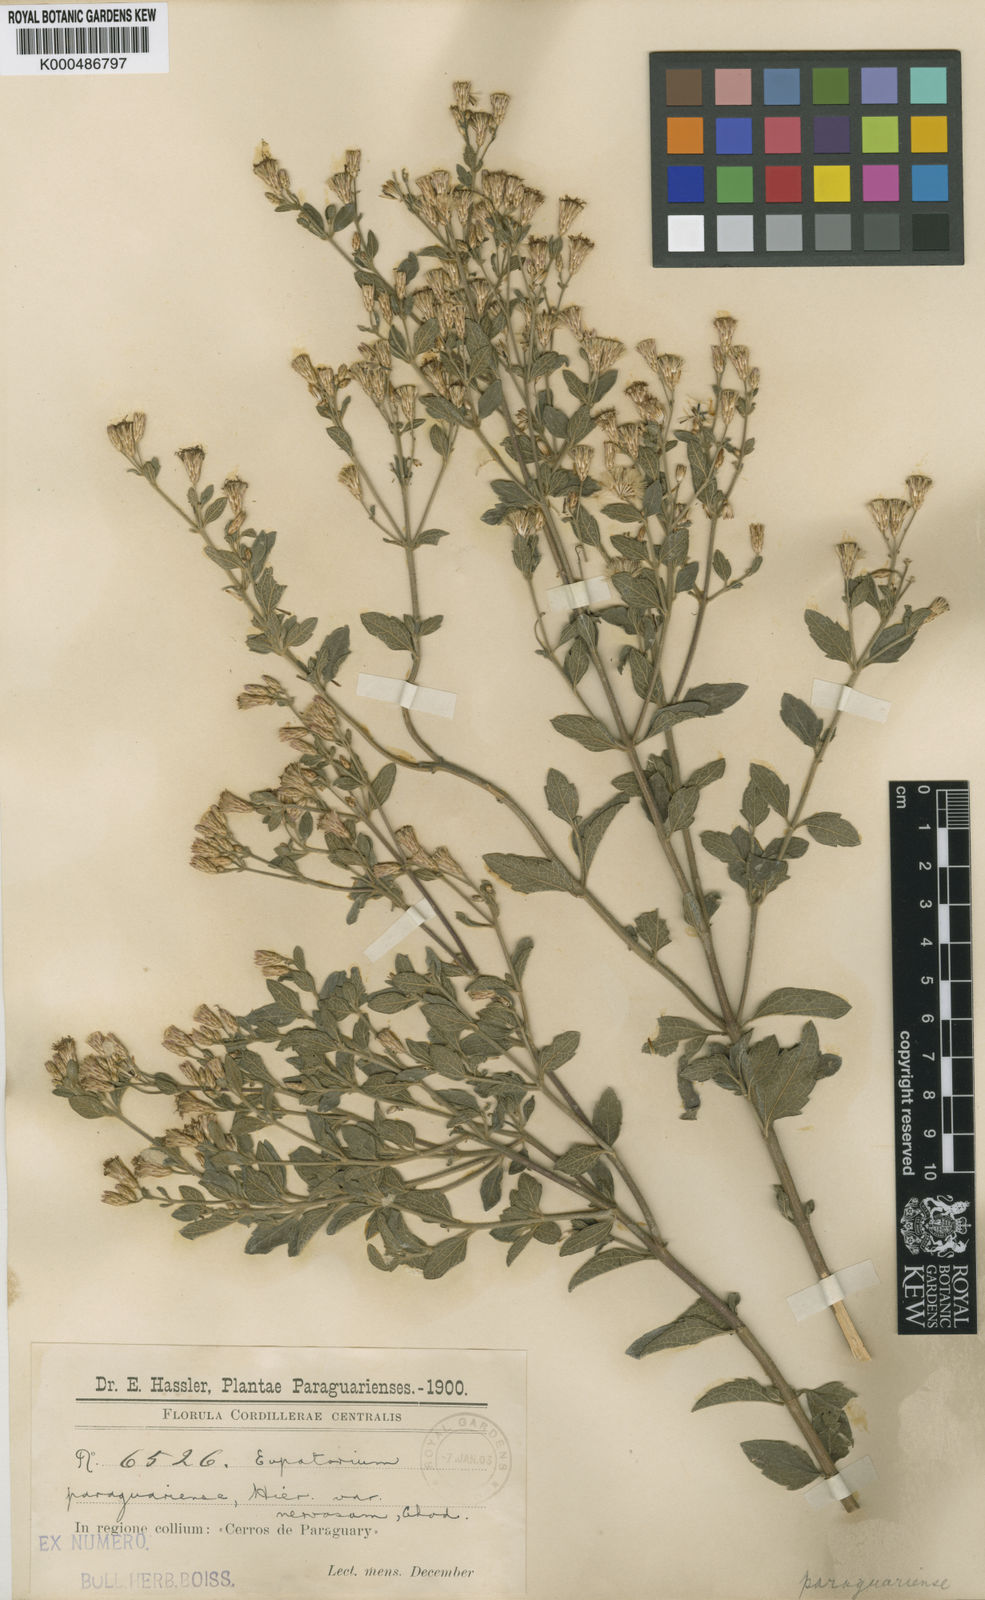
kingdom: Plantae
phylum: Tracheophyta
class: Magnoliopsida
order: Asterales
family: Asteraceae
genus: Chromolaena
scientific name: Chromolaena paraguariensis
